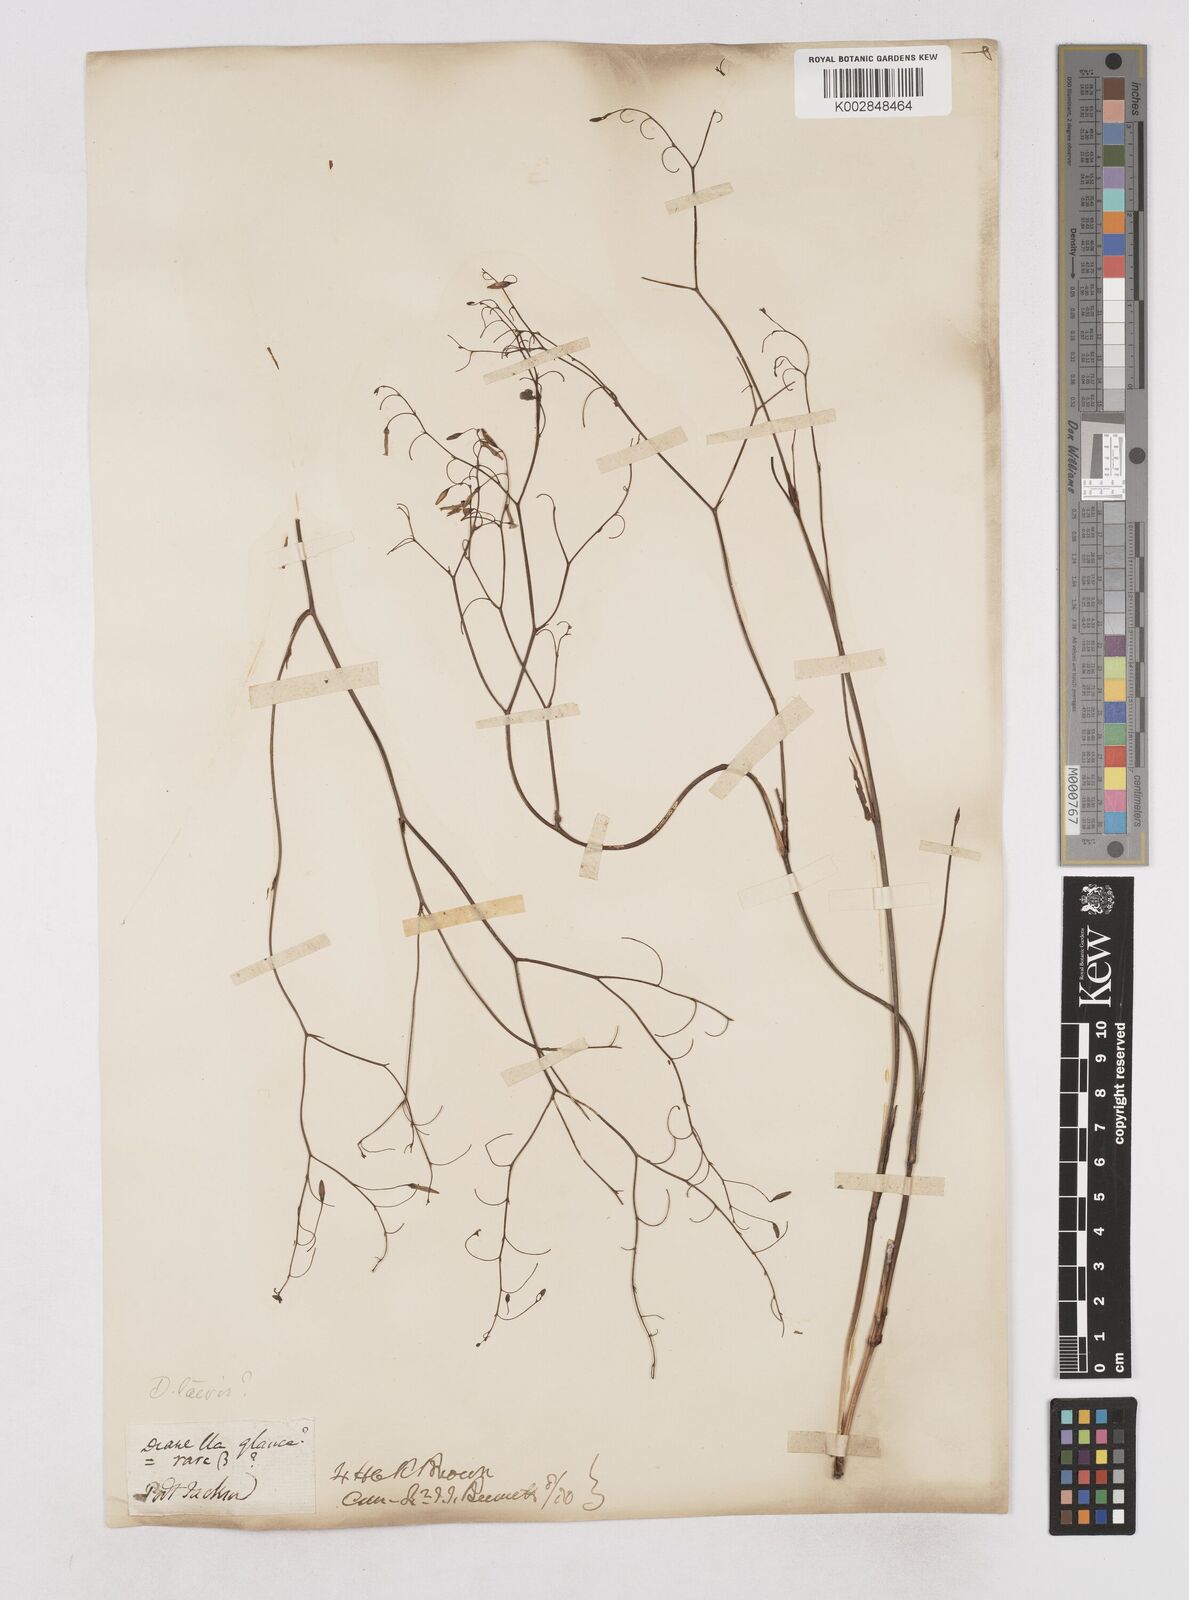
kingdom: Plantae
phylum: Tracheophyta
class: Liliopsida
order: Asparagales
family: Asphodelaceae
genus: Dianella
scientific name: Dianella longifolia
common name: Blue flax-lily
